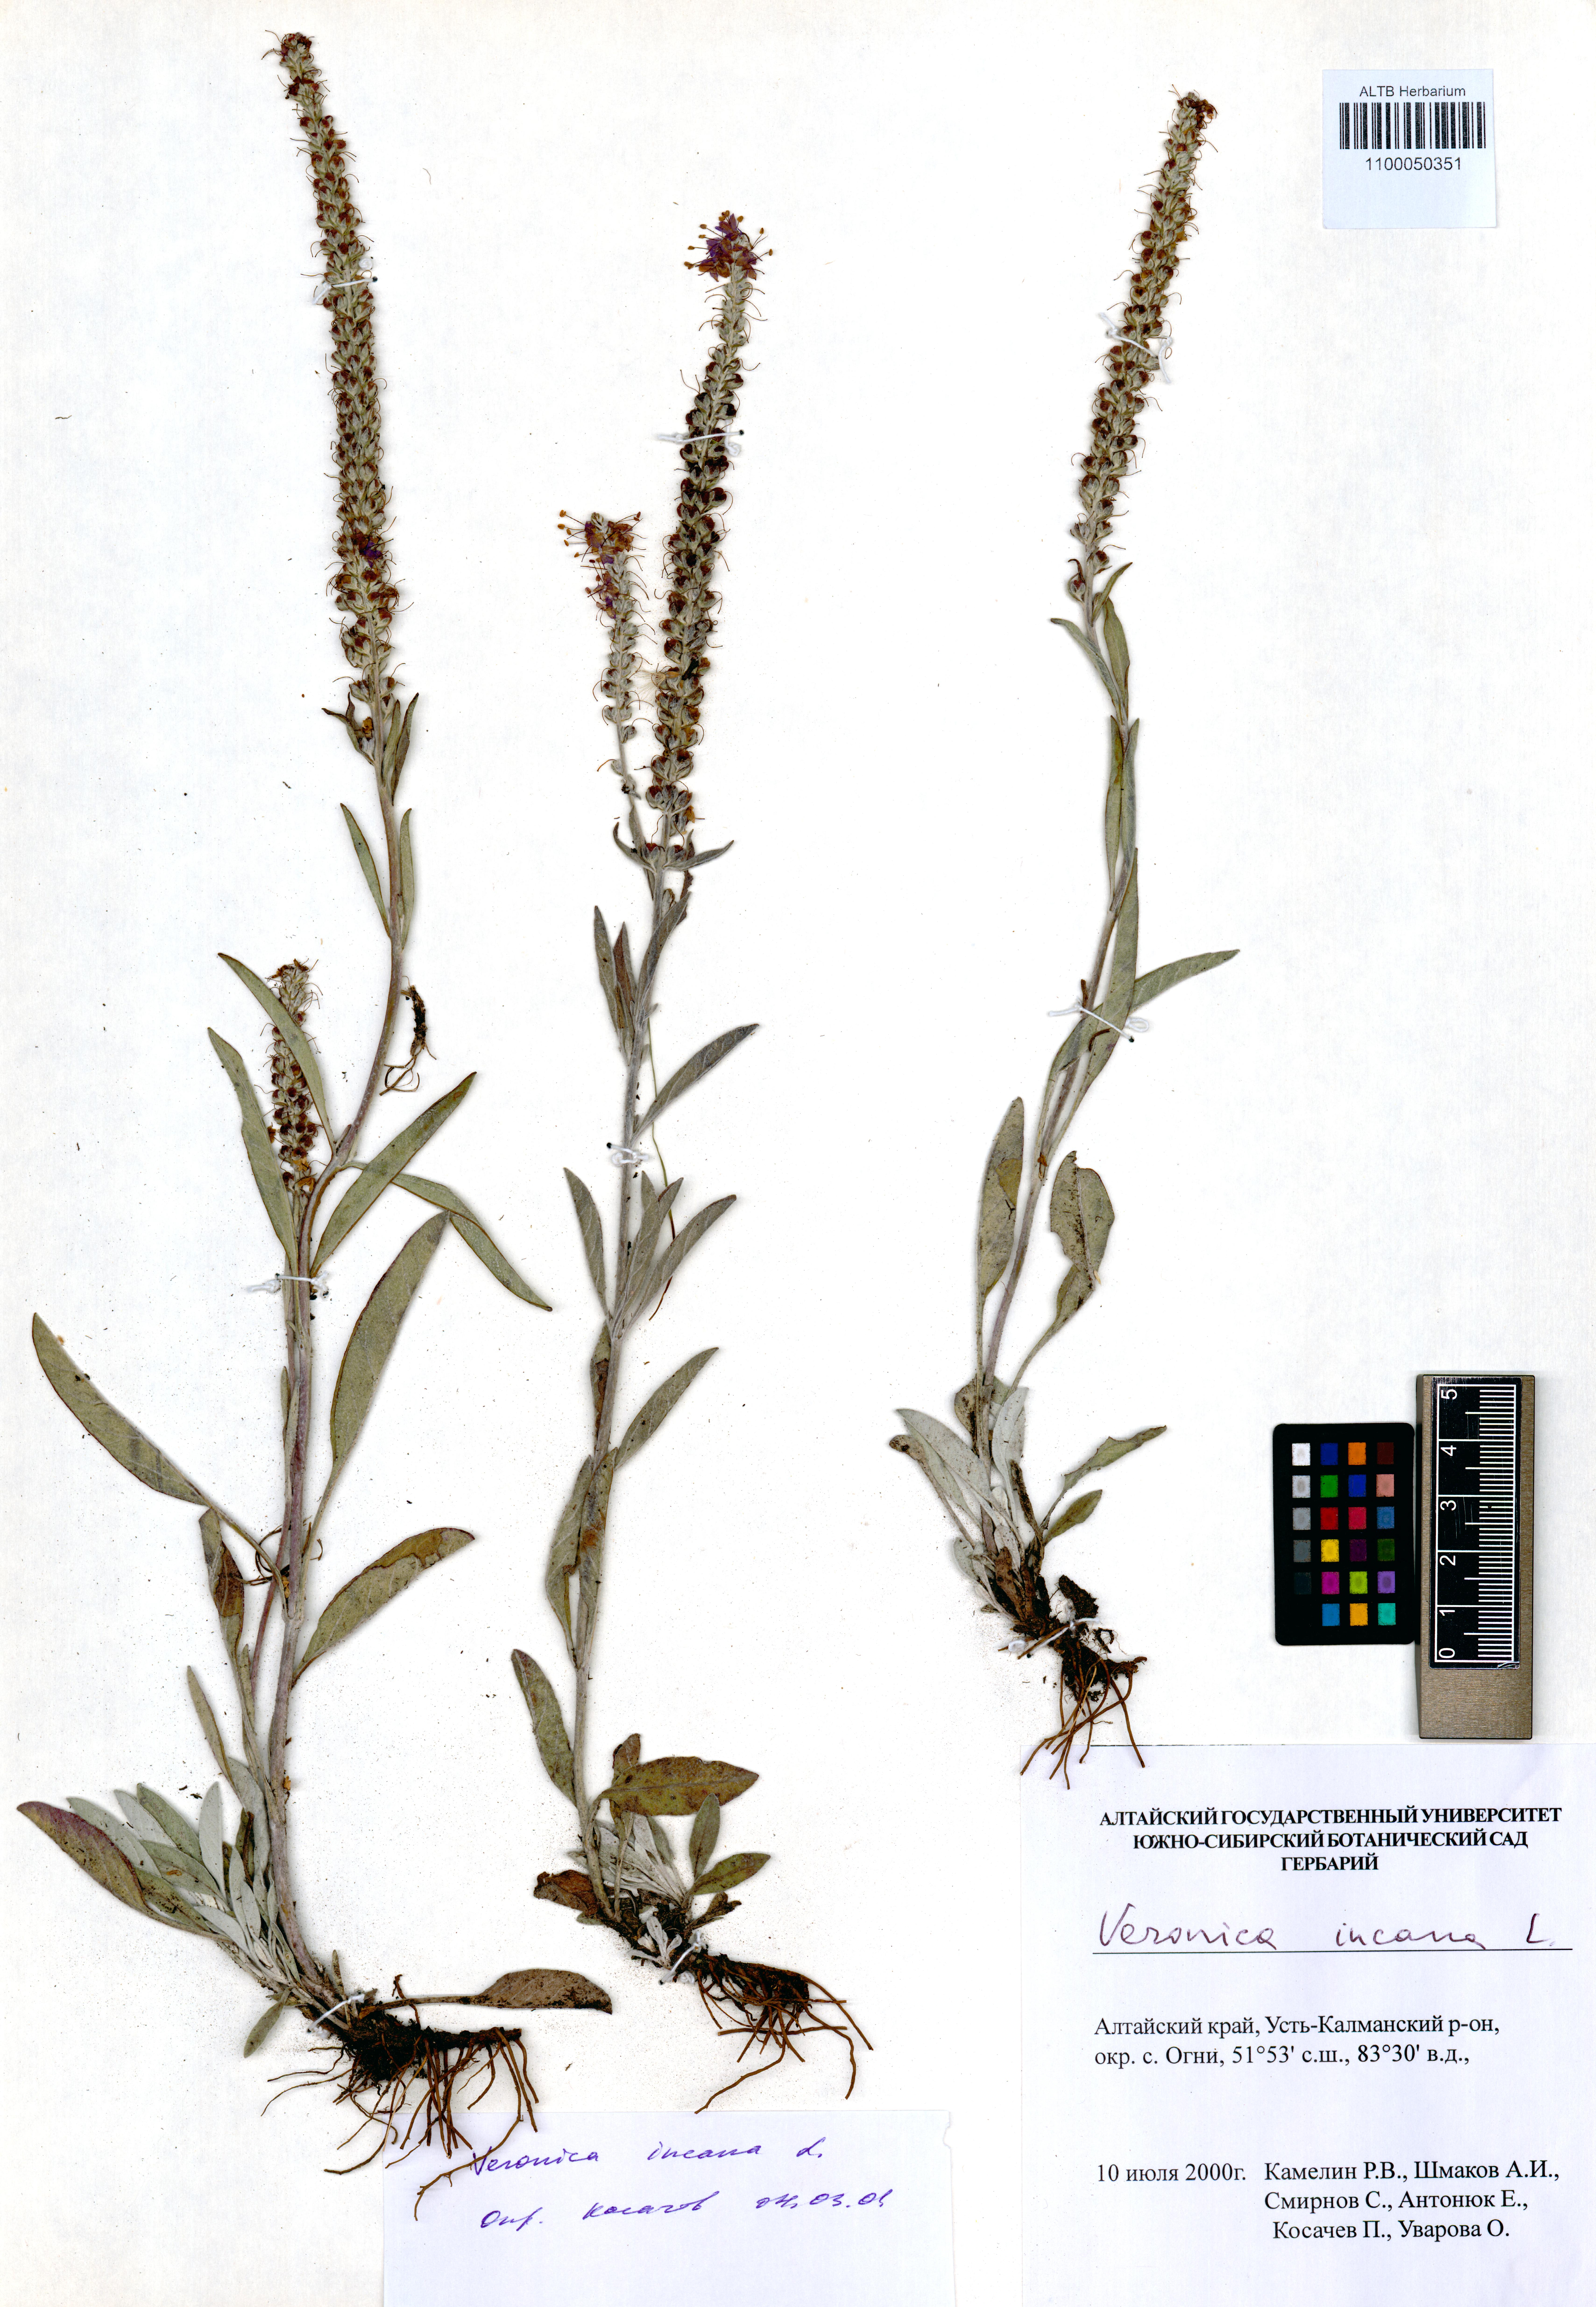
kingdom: Plantae
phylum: Tracheophyta
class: Magnoliopsida
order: Lamiales
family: Plantaginaceae
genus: Veronica
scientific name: Veronica incana
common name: Silver speedwell
